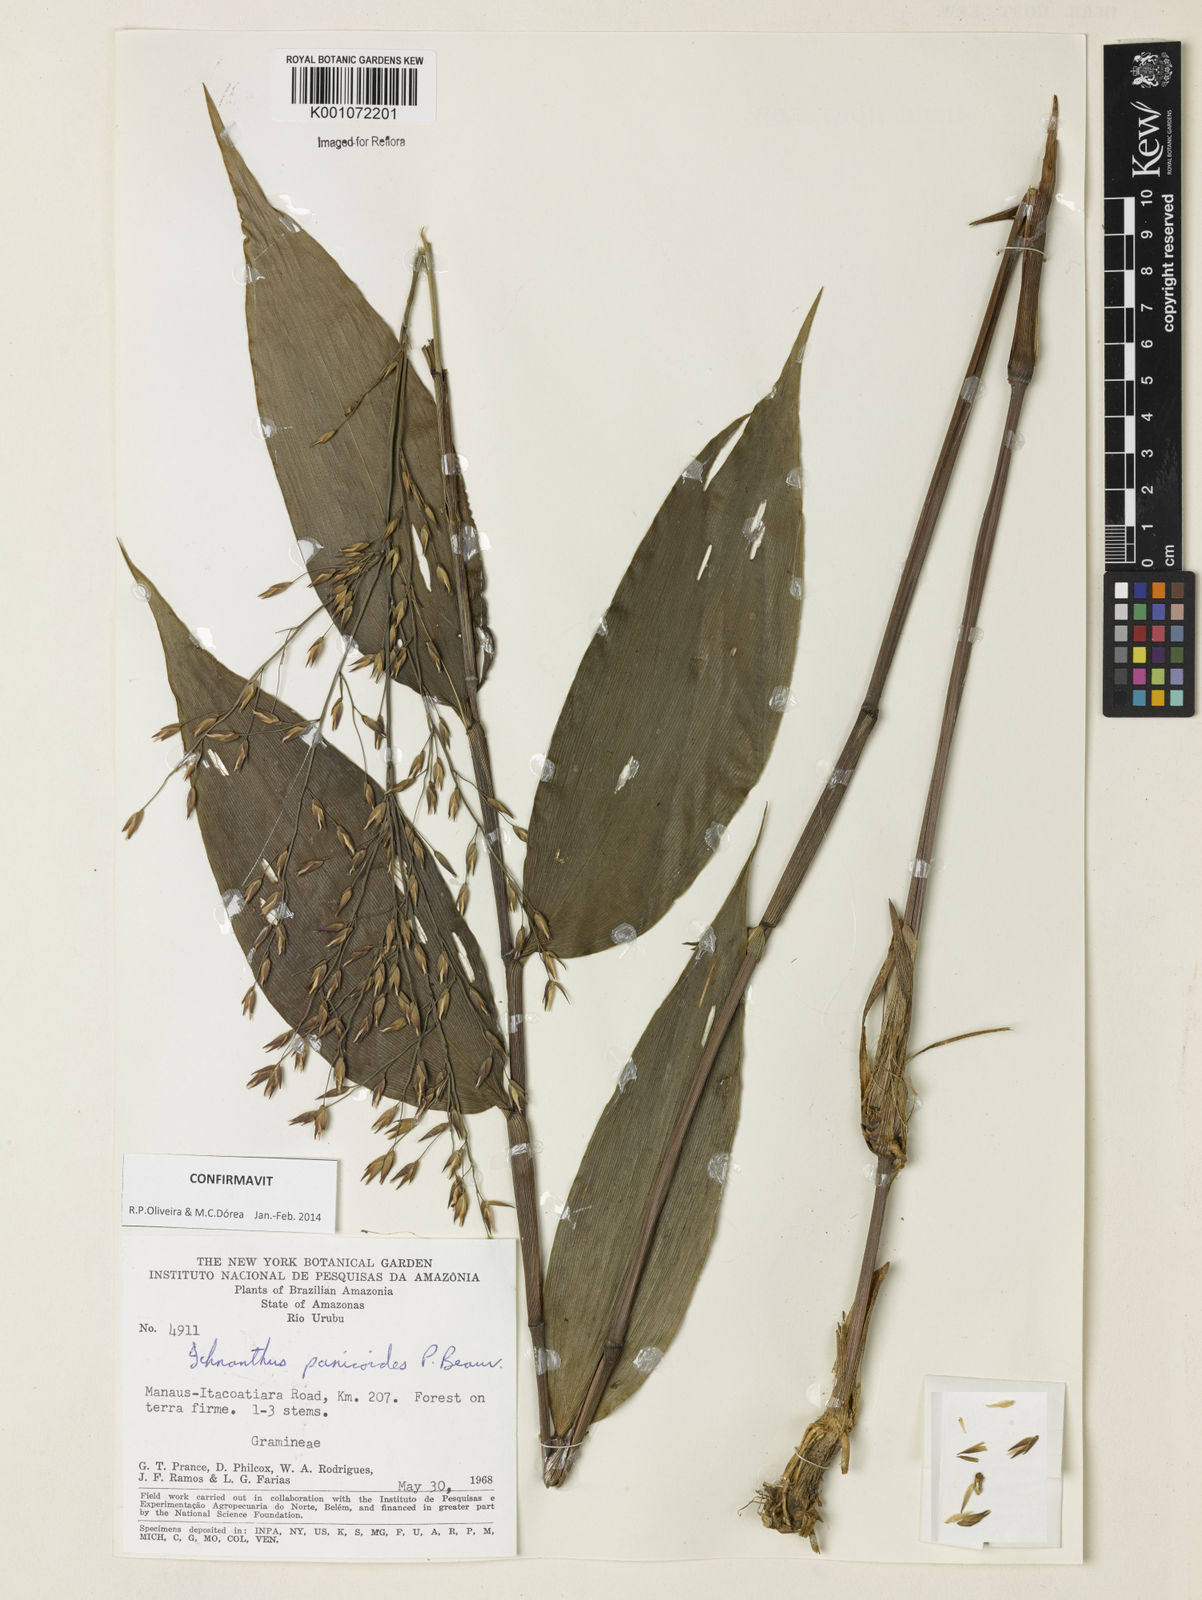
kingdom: Plantae
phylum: Tracheophyta
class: Liliopsida
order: Poales
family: Poaceae
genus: Ichnanthus
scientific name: Ichnanthus panicoides
